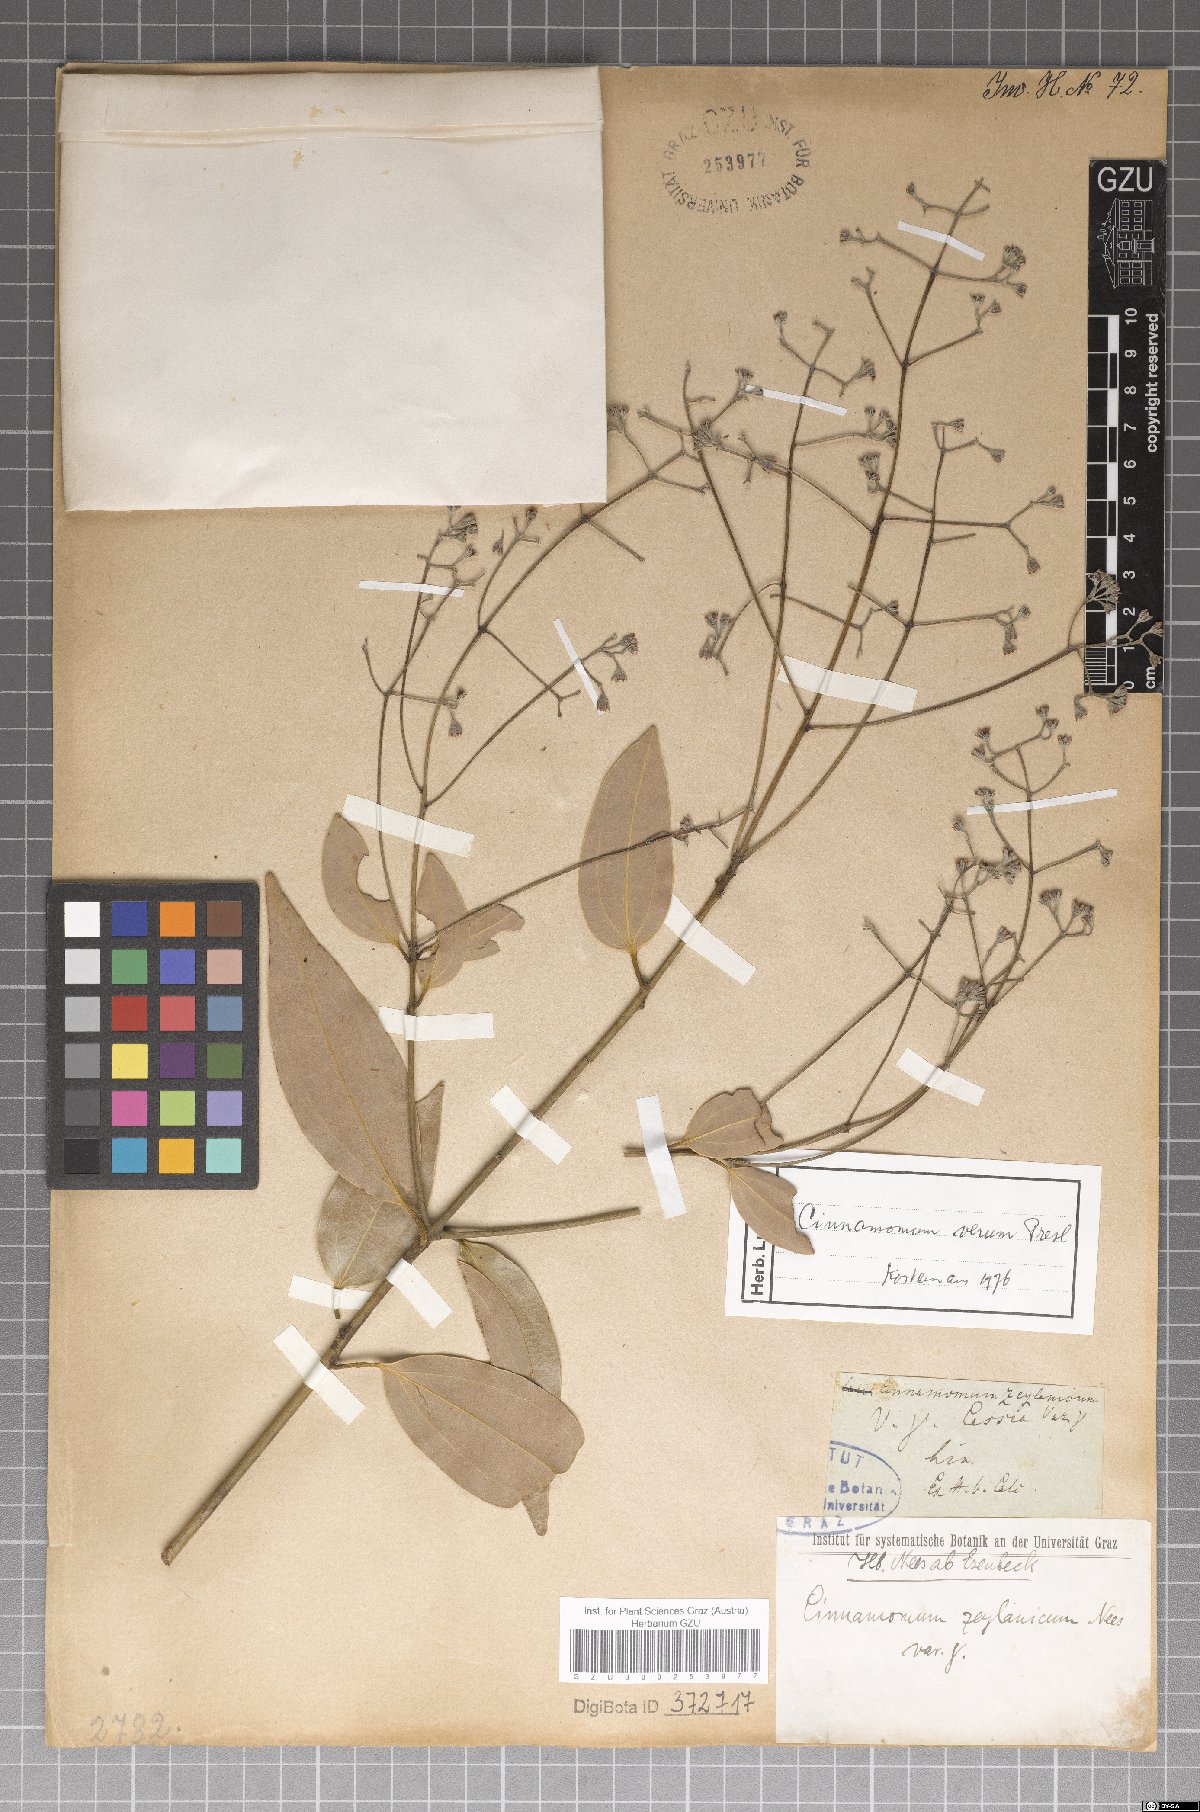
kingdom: Plantae
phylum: Tracheophyta
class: Magnoliopsida
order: Laurales
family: Lauraceae
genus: Cinnamomum
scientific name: Cinnamomum verum
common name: Cinnamon
